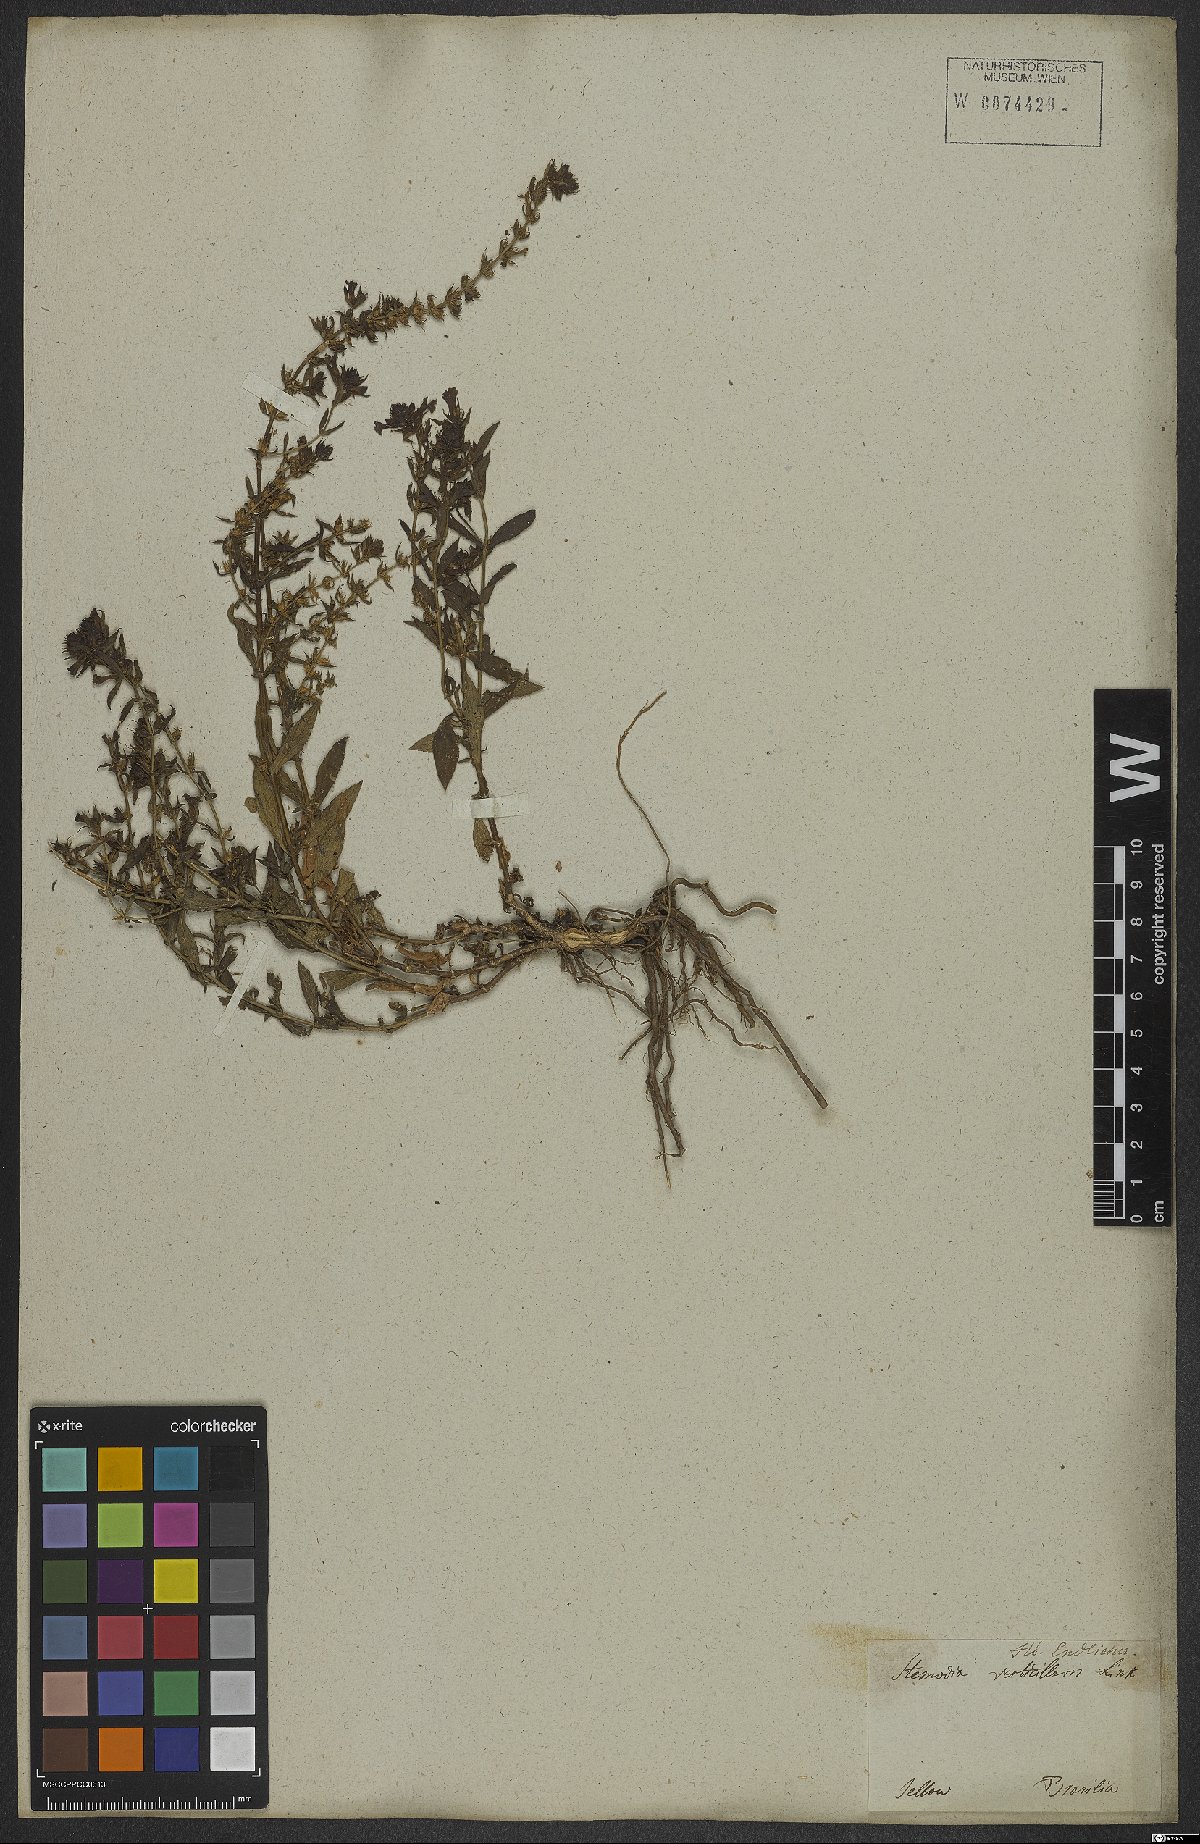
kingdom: Plantae
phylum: Tracheophyta
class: Magnoliopsida
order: Lamiales
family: Plantaginaceae
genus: Stemodia
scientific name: Stemodia verticillata
